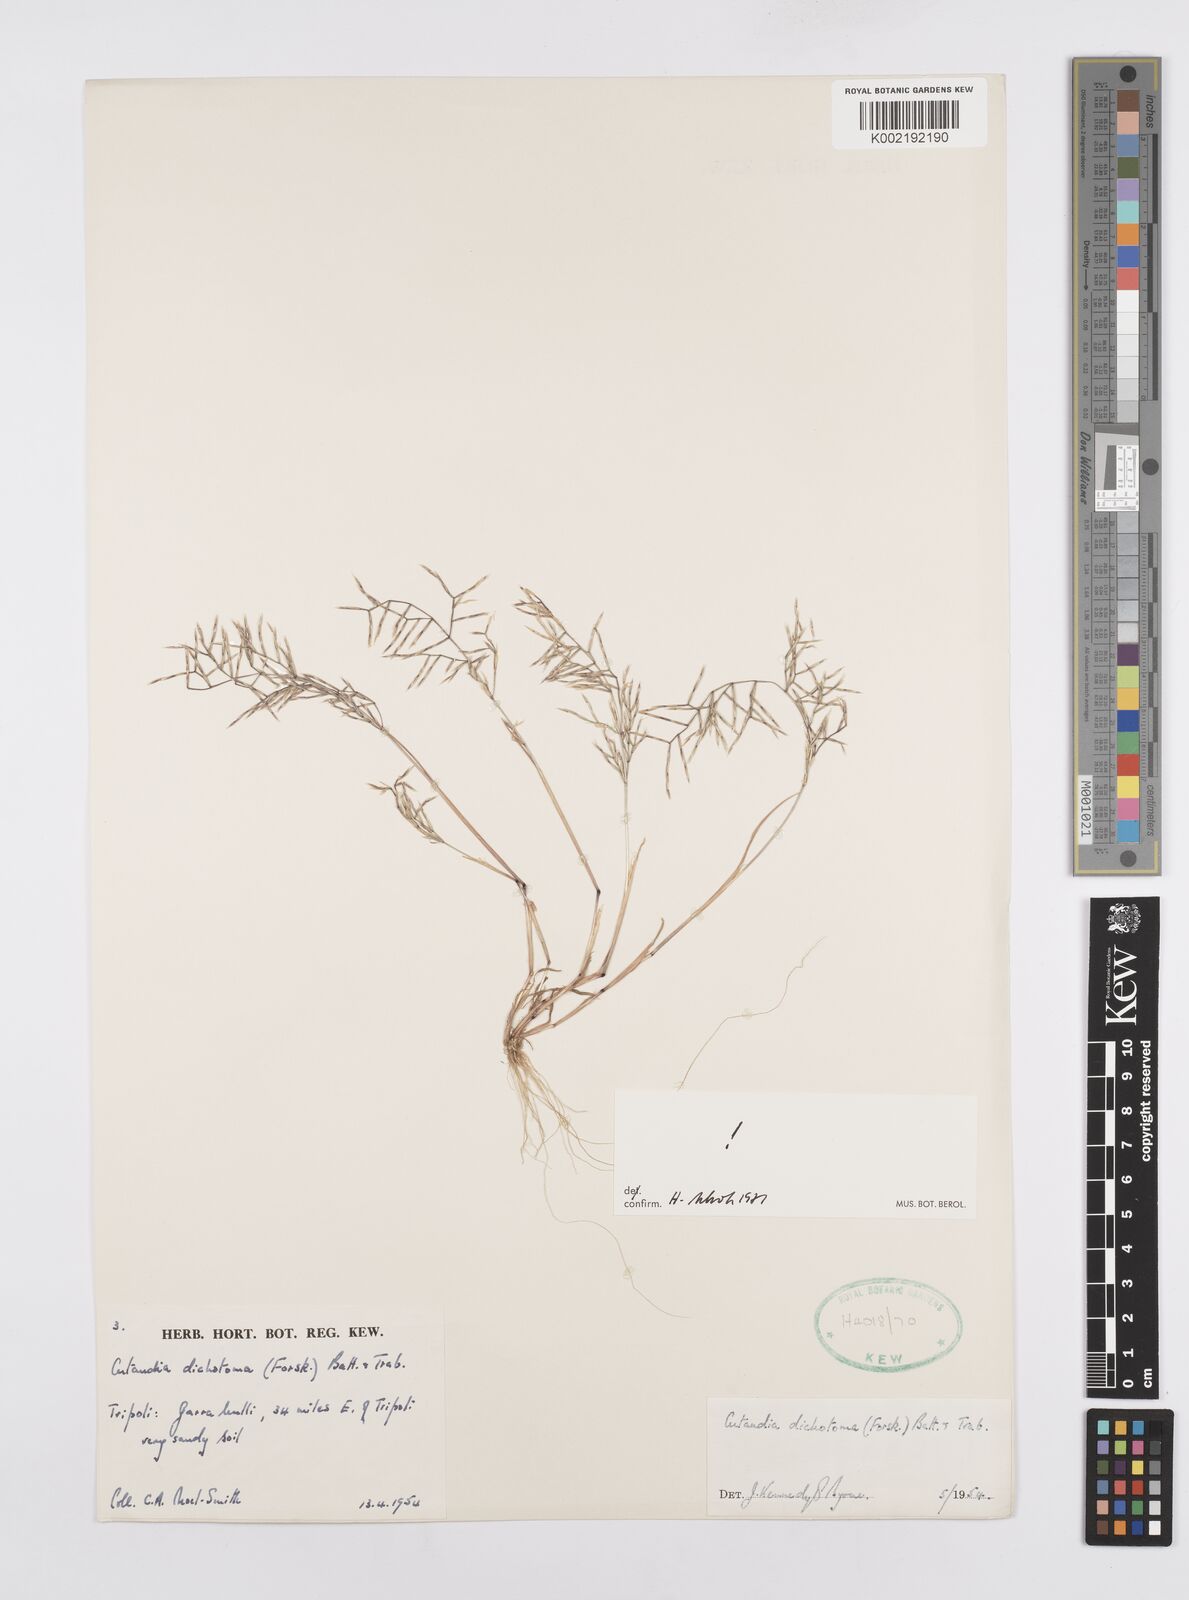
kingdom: Plantae
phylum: Tracheophyta
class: Liliopsida
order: Poales
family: Poaceae
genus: Cutandia
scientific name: Cutandia dichotoma
